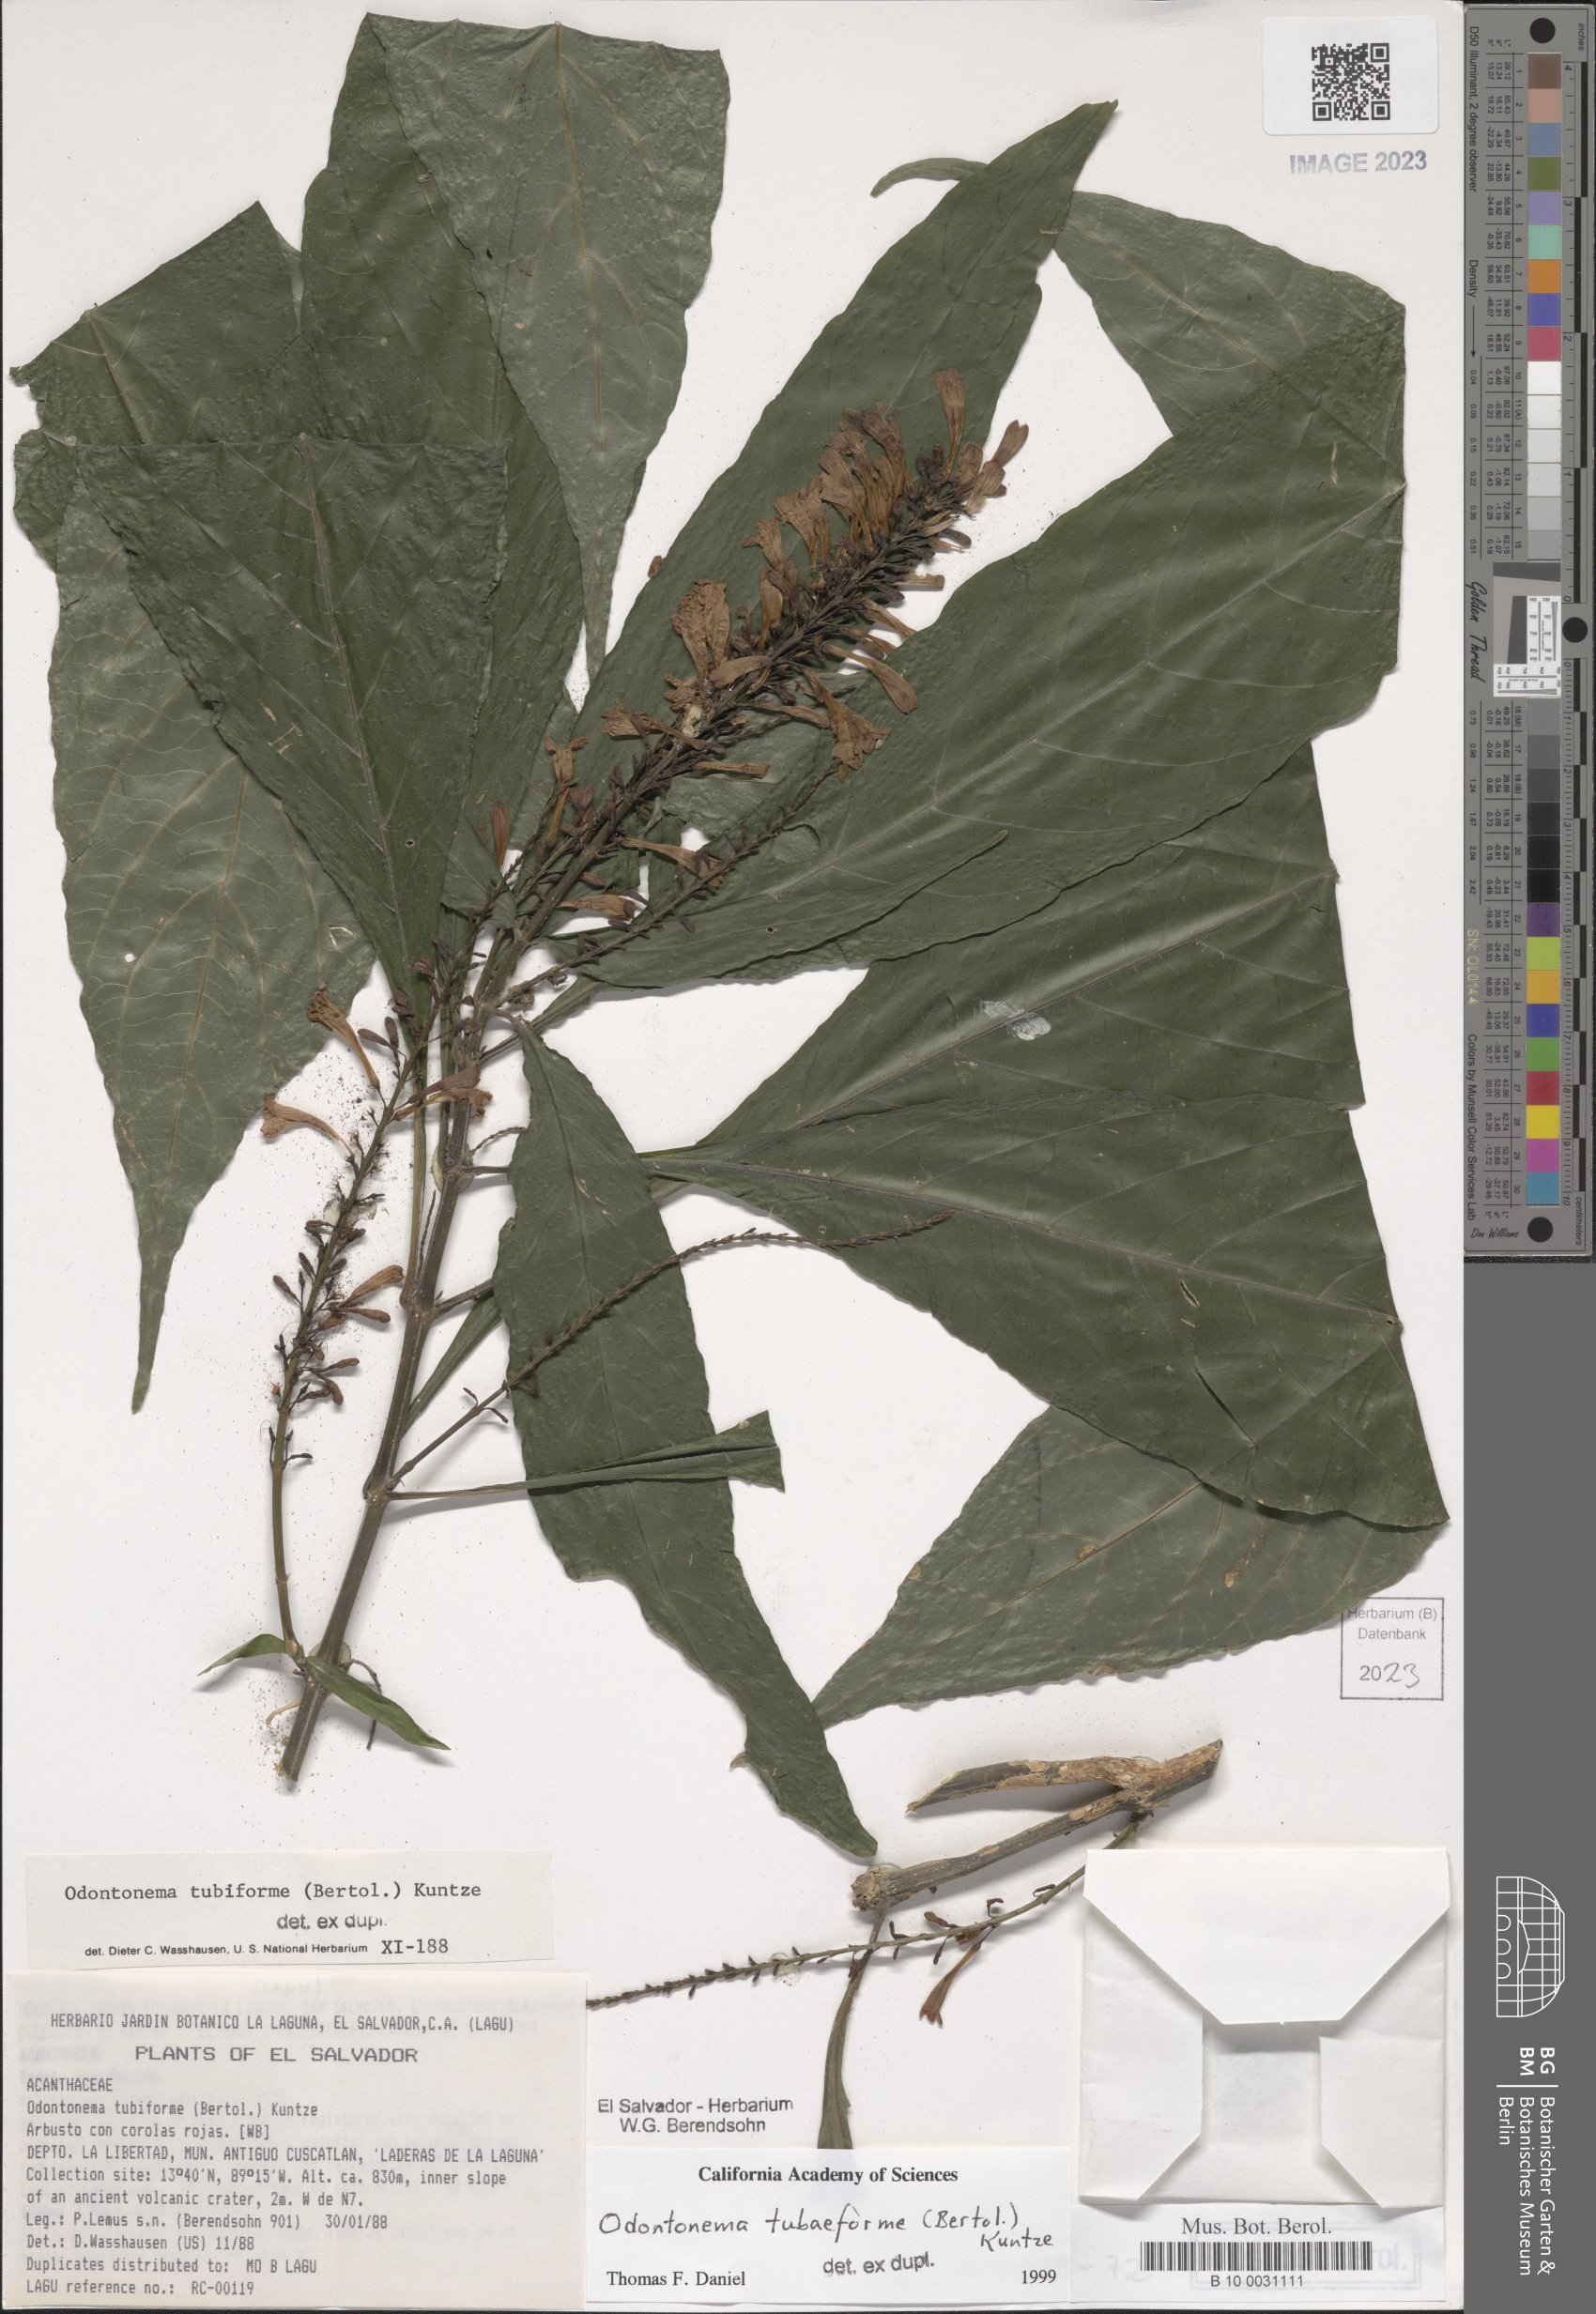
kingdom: Plantae
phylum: Tracheophyta
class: Magnoliopsida
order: Lamiales
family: Acanthaceae
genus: Odontonema
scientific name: Odontonema tubaeforme
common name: Firespike
